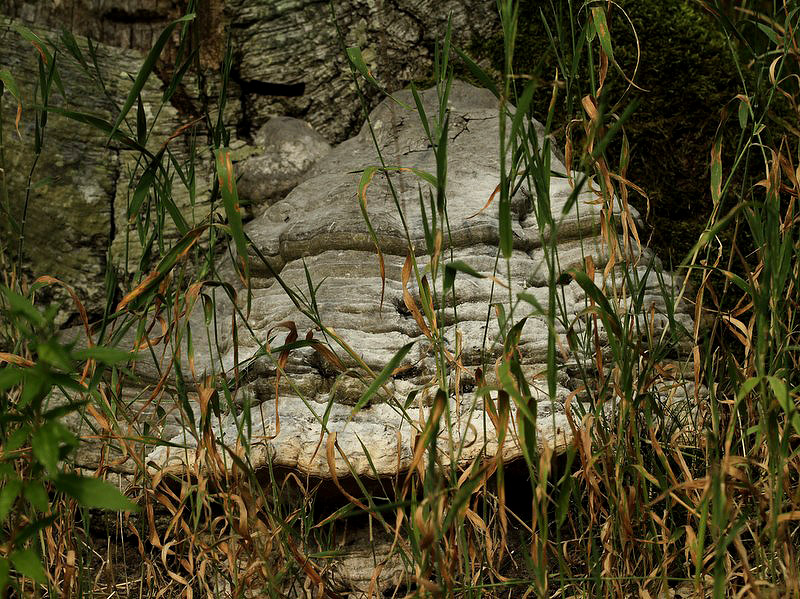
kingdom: Fungi
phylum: Basidiomycota
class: Agaricomycetes
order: Polyporales
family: Polyporaceae
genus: Fomes
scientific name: Fomes fomentarius
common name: tøndersvamp
